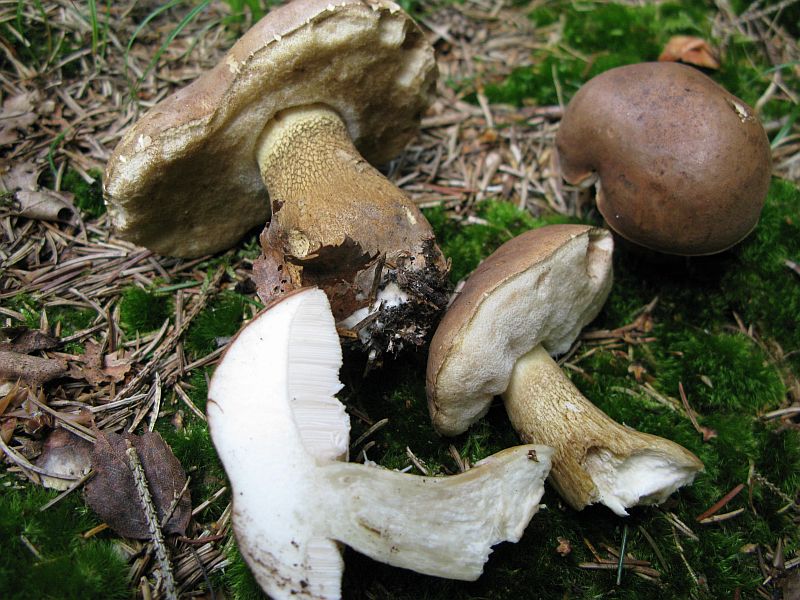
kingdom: Fungi
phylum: Basidiomycota
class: Agaricomycetes
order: Boletales
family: Boletaceae
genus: Tylopilus
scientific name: Tylopilus felleus
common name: galderørhat
